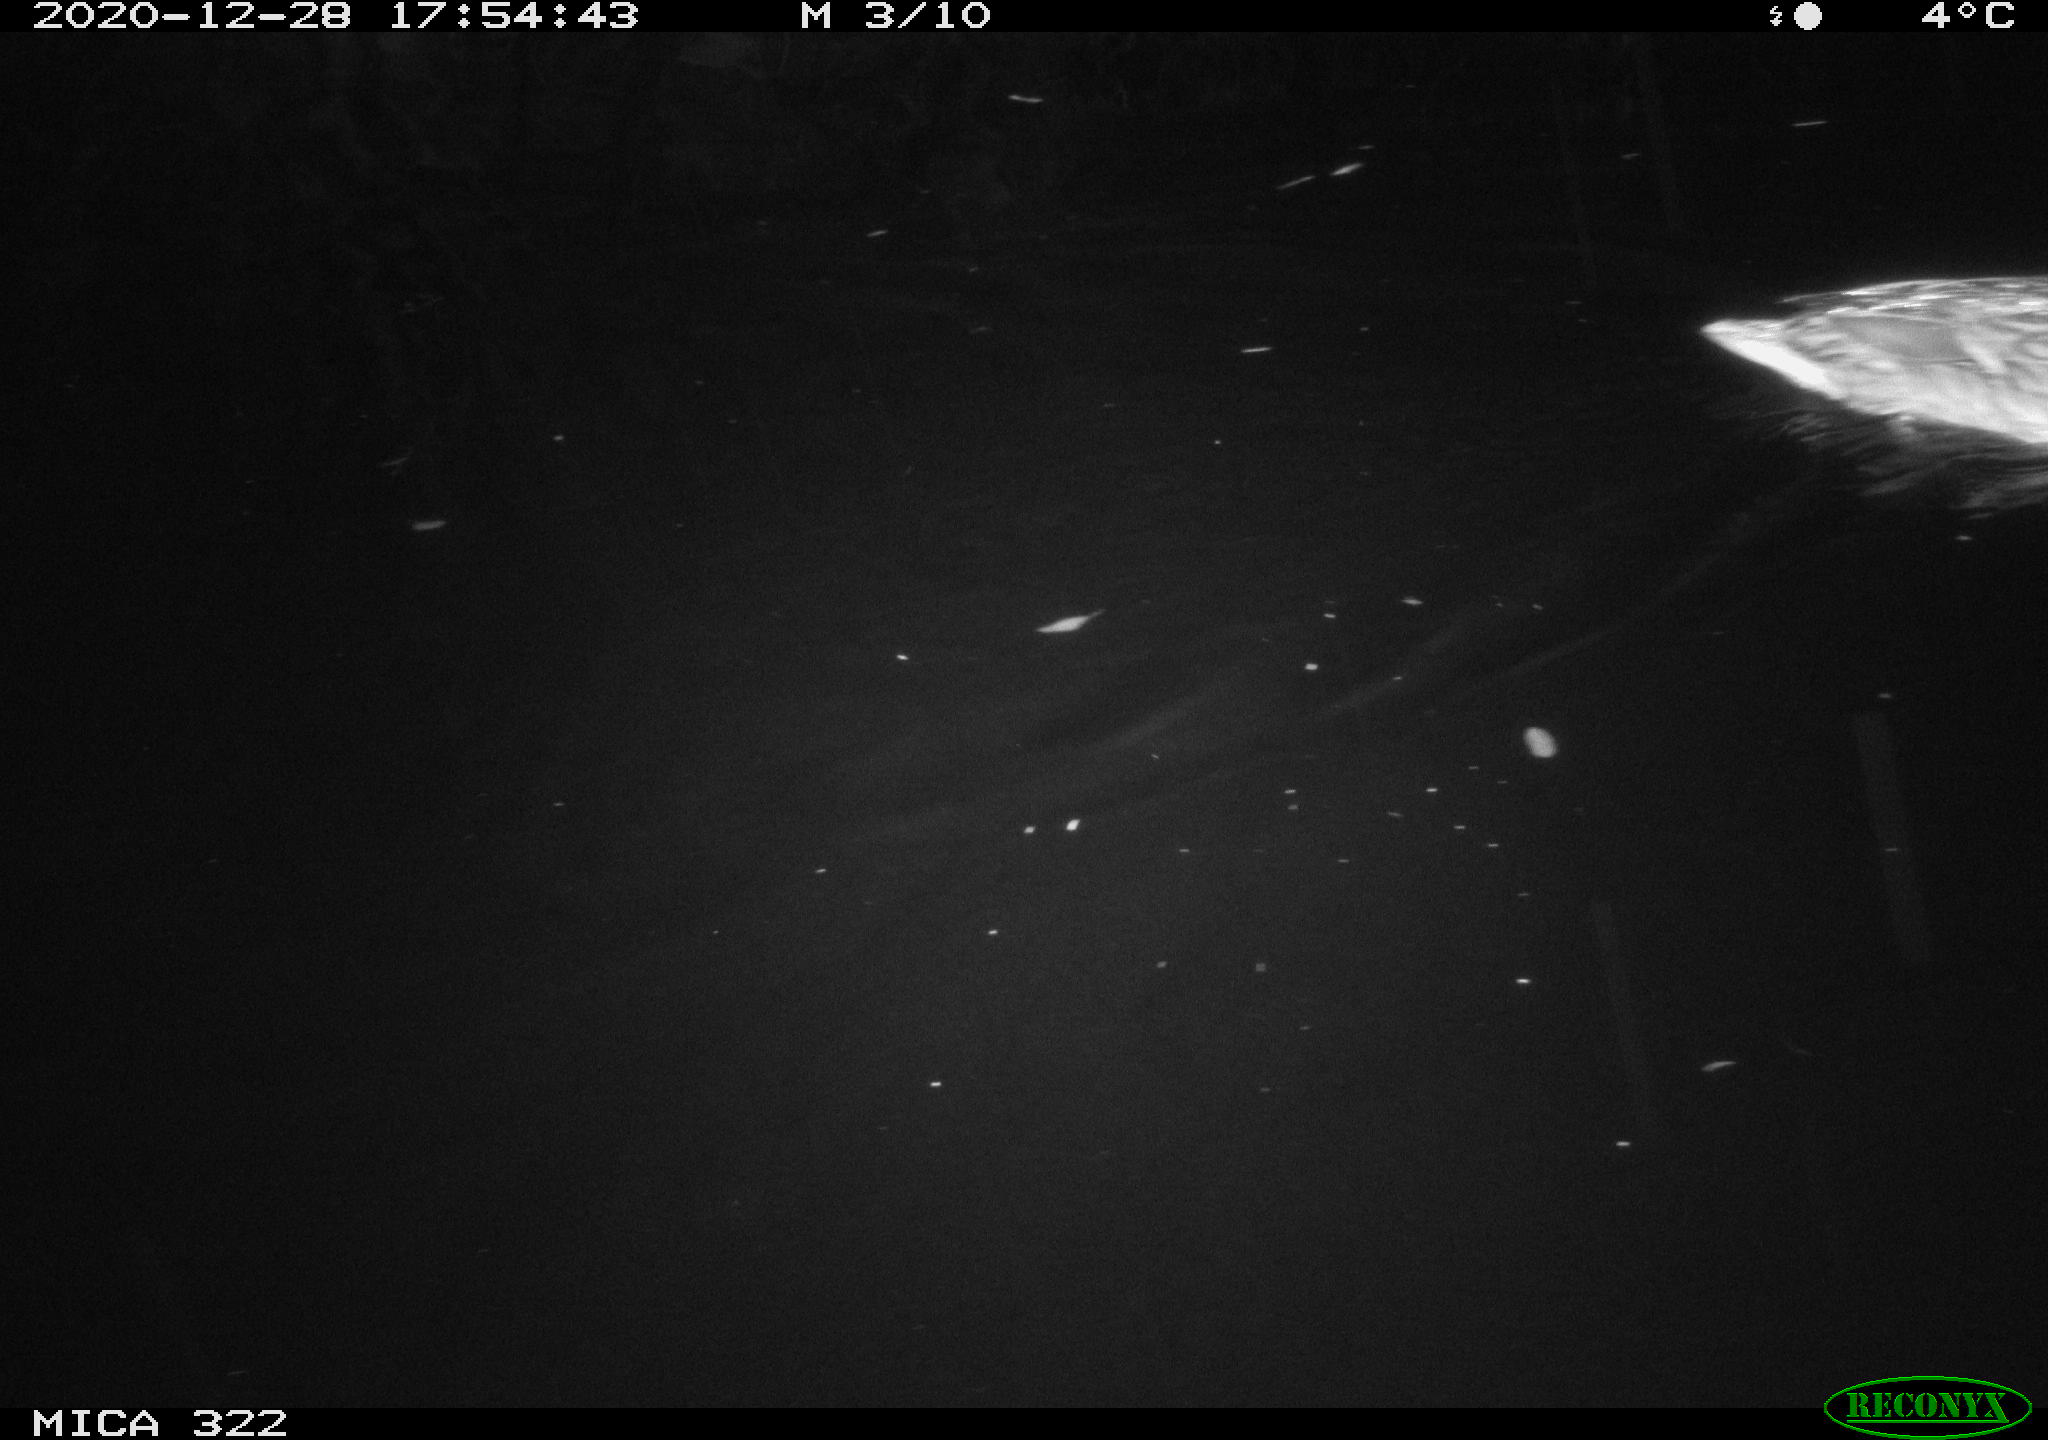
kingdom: Animalia
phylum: Chordata
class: Aves
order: Anseriformes
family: Anatidae
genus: Anas
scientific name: Anas platyrhynchos
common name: Mallard
